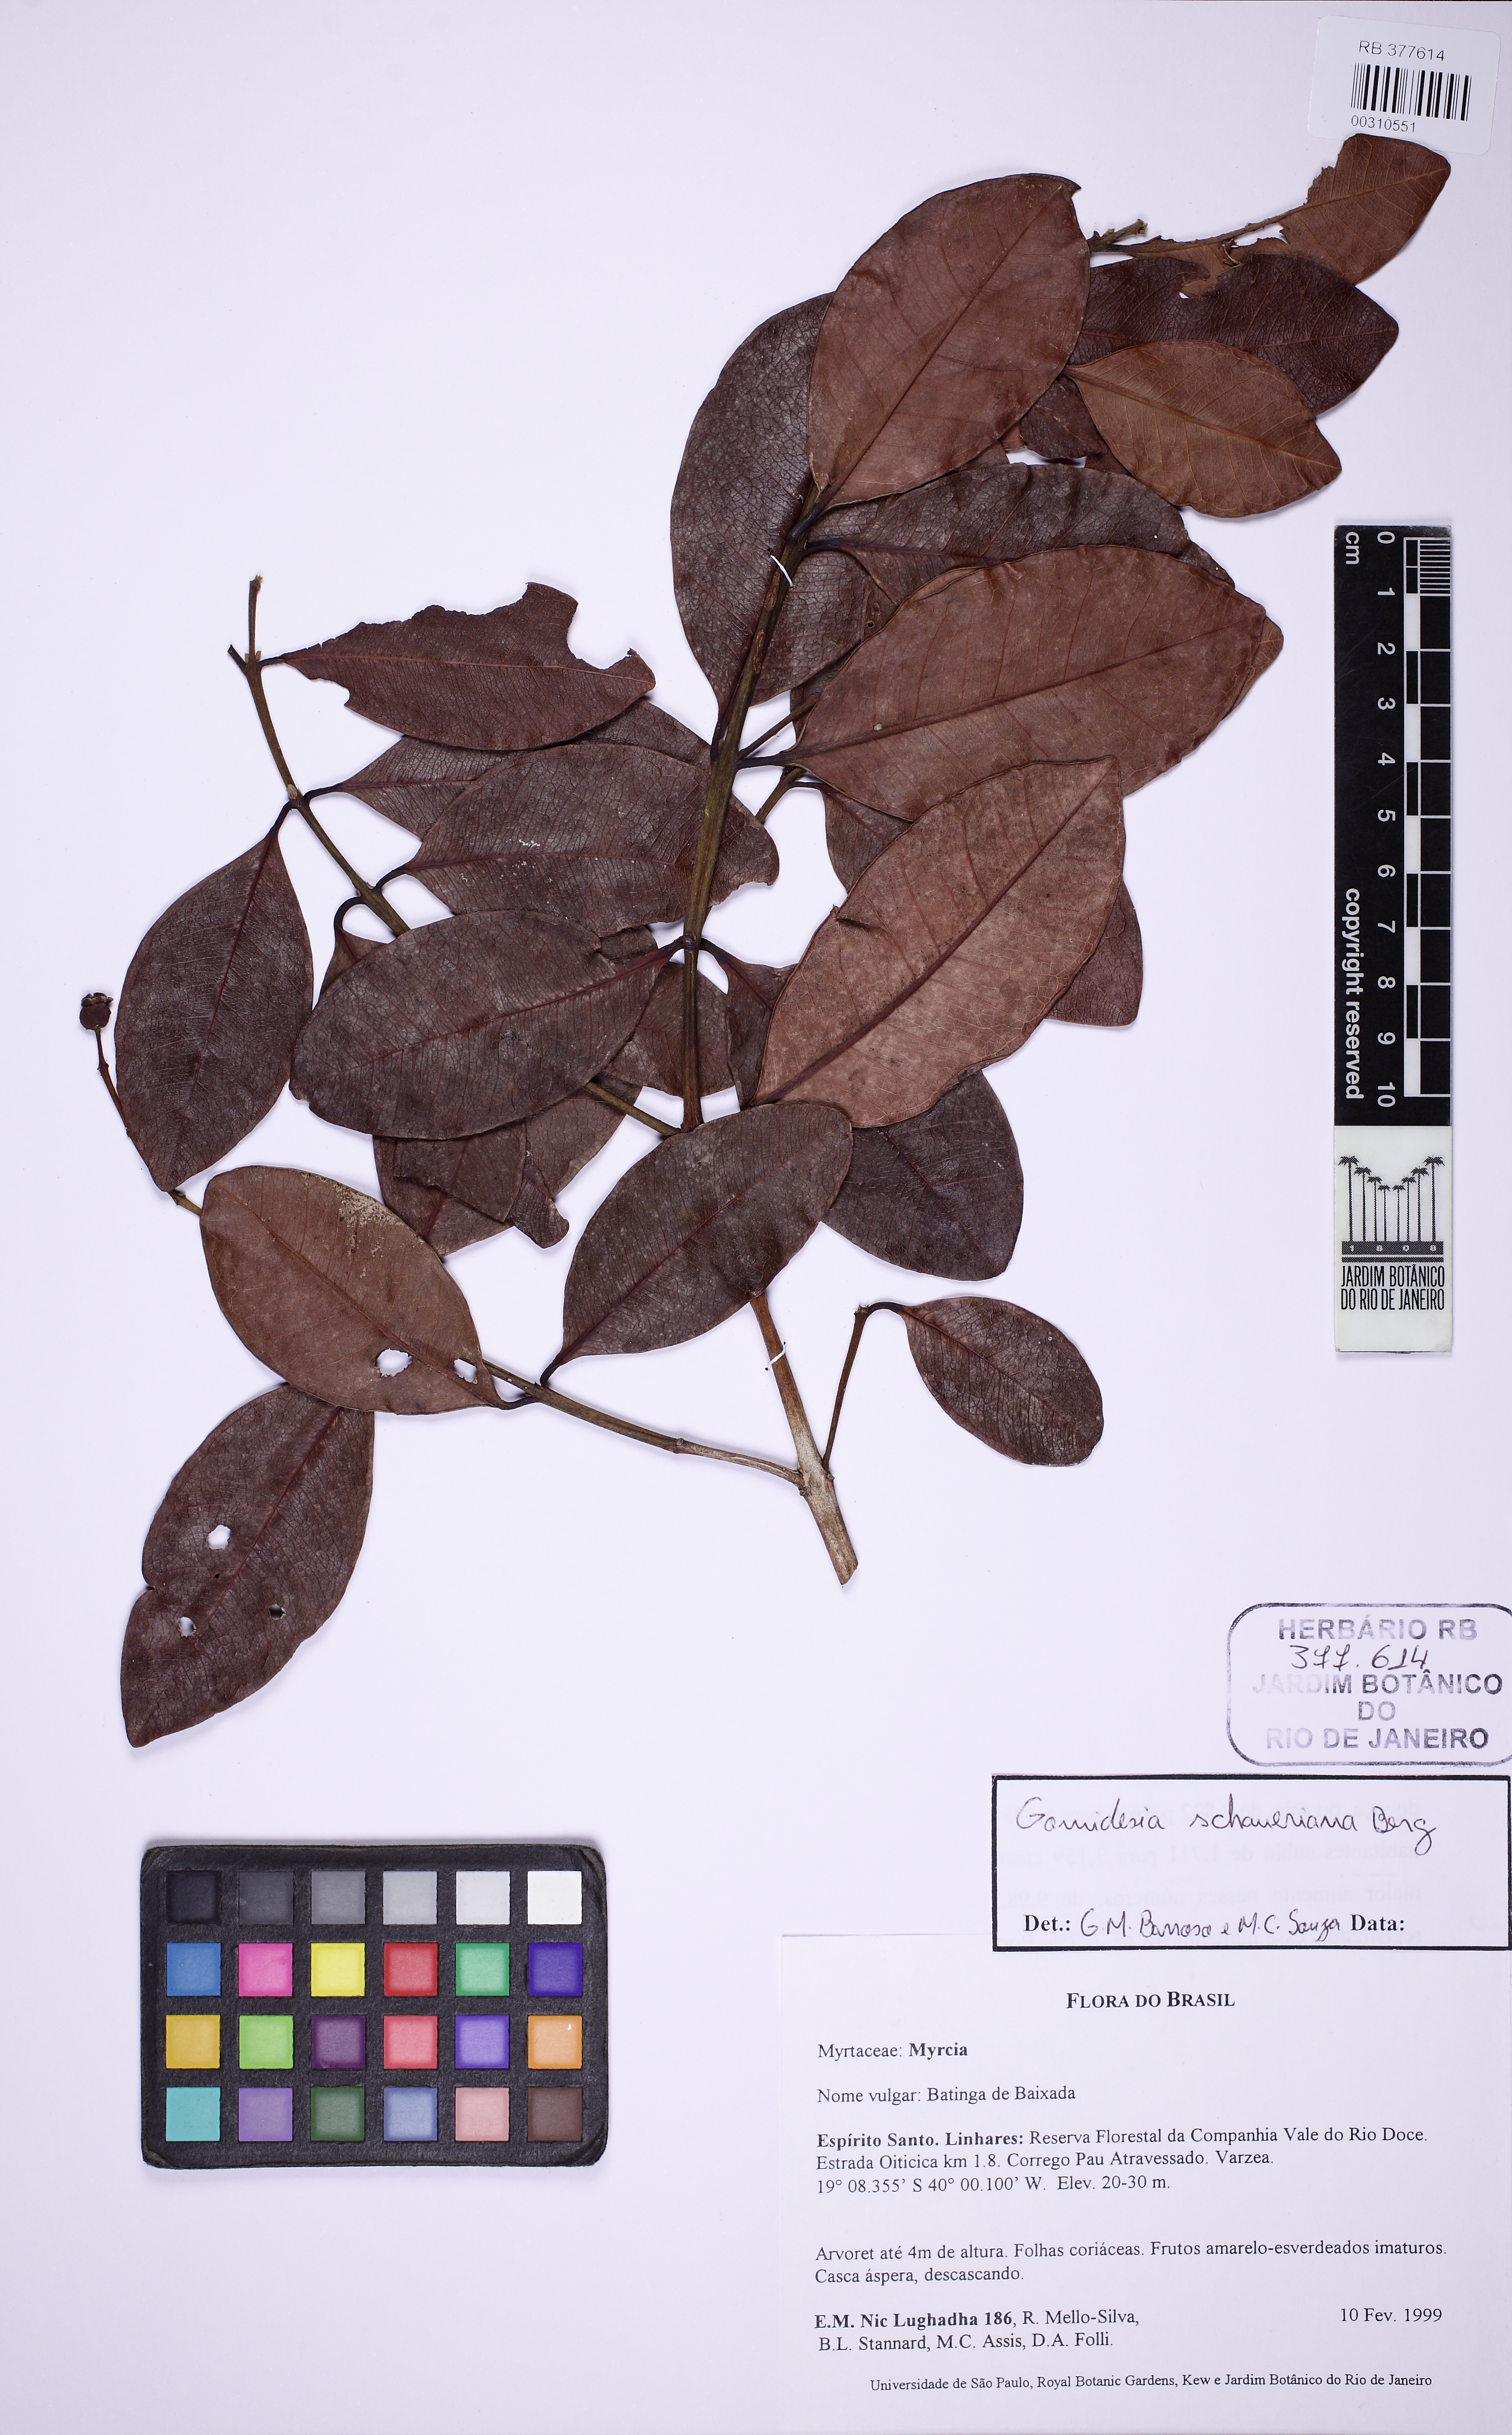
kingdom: Plantae
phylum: Tracheophyta
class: Magnoliopsida
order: Myrtales
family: Myrtaceae
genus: Myrcia
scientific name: Myrcia freyreissiana
